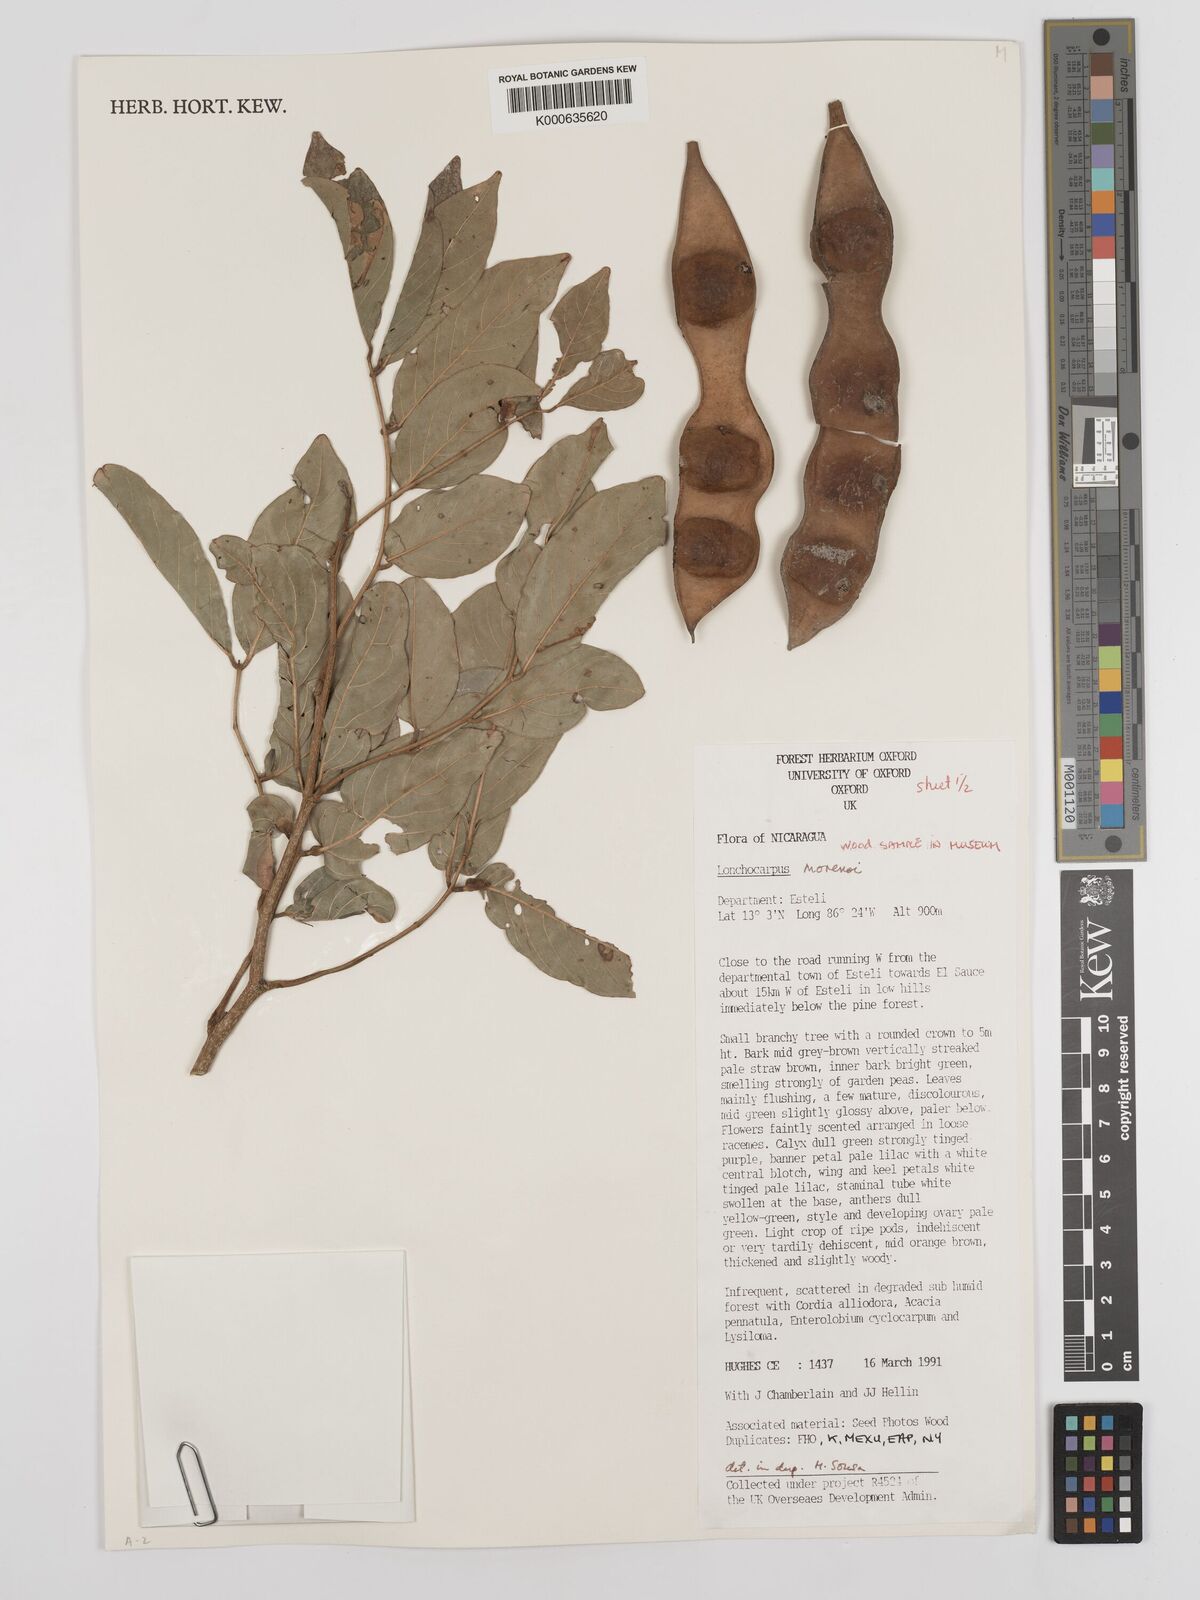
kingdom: Plantae
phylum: Tracheophyta
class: Magnoliopsida
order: Fabales
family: Fabaceae
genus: Lonchocarpus
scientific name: Lonchocarpus morenoi
